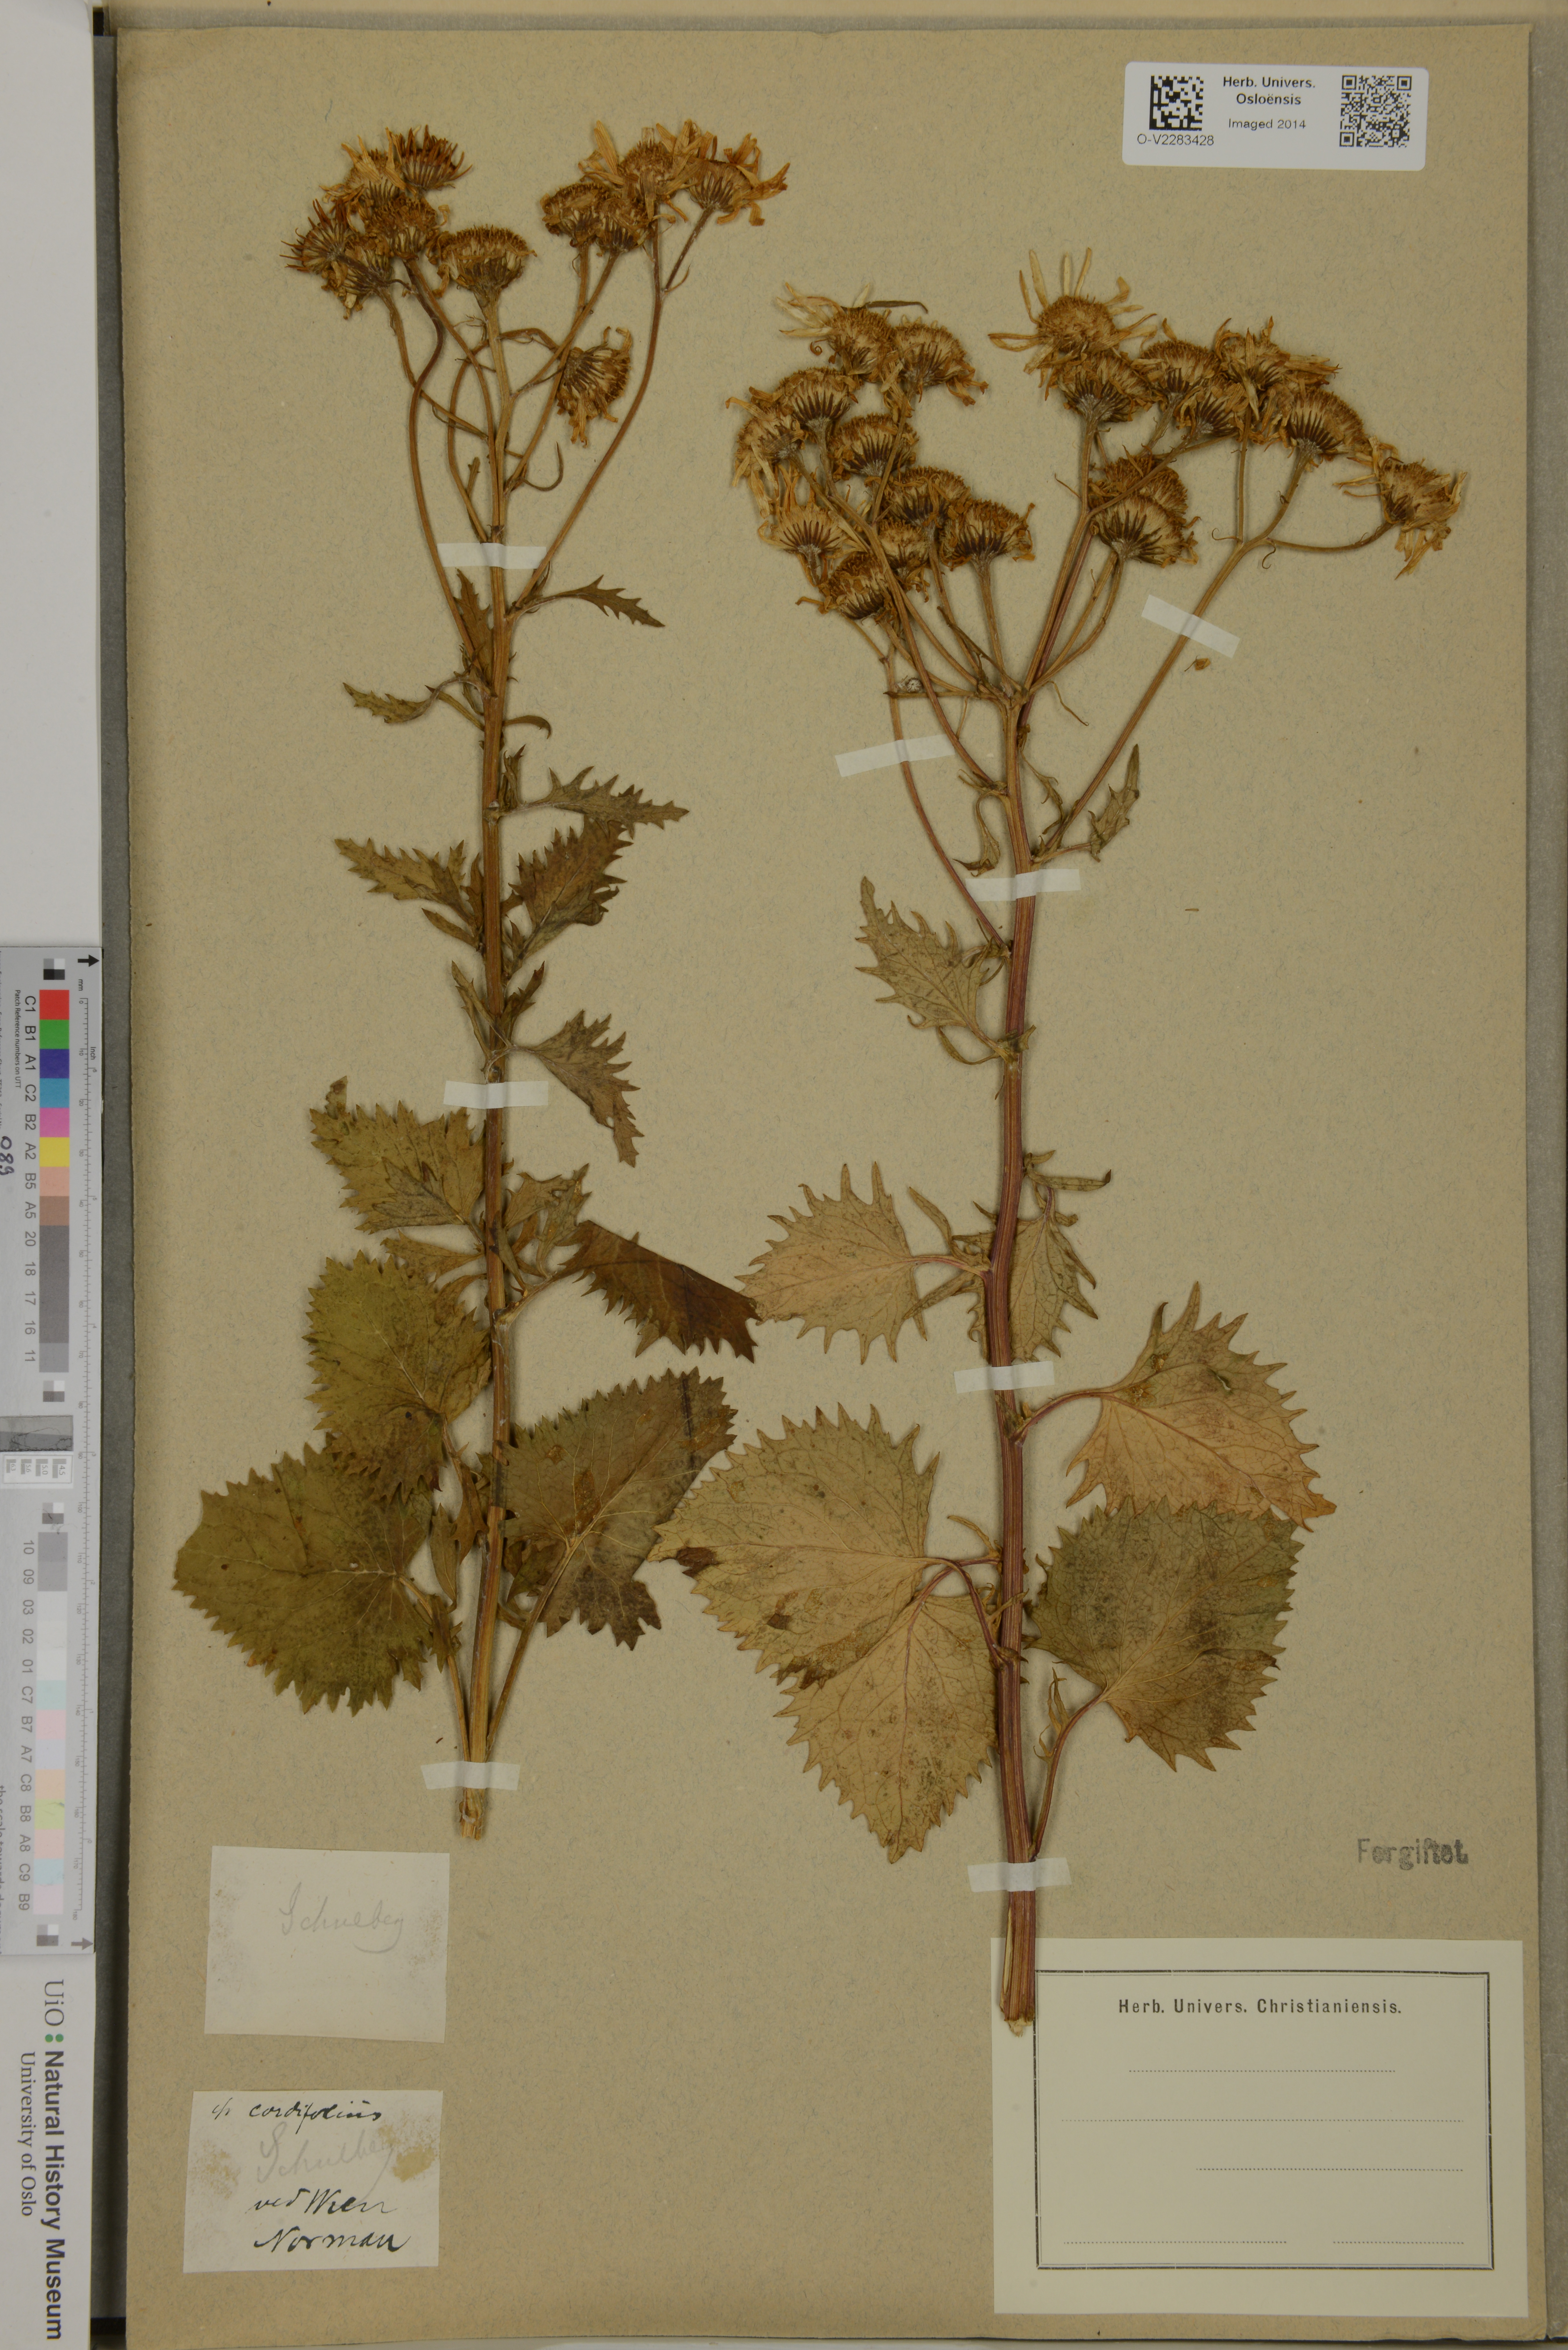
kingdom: Plantae
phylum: Tracheophyta
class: Magnoliopsida
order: Asterales
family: Asteraceae
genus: Senecio
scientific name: Senecio cordifolius
